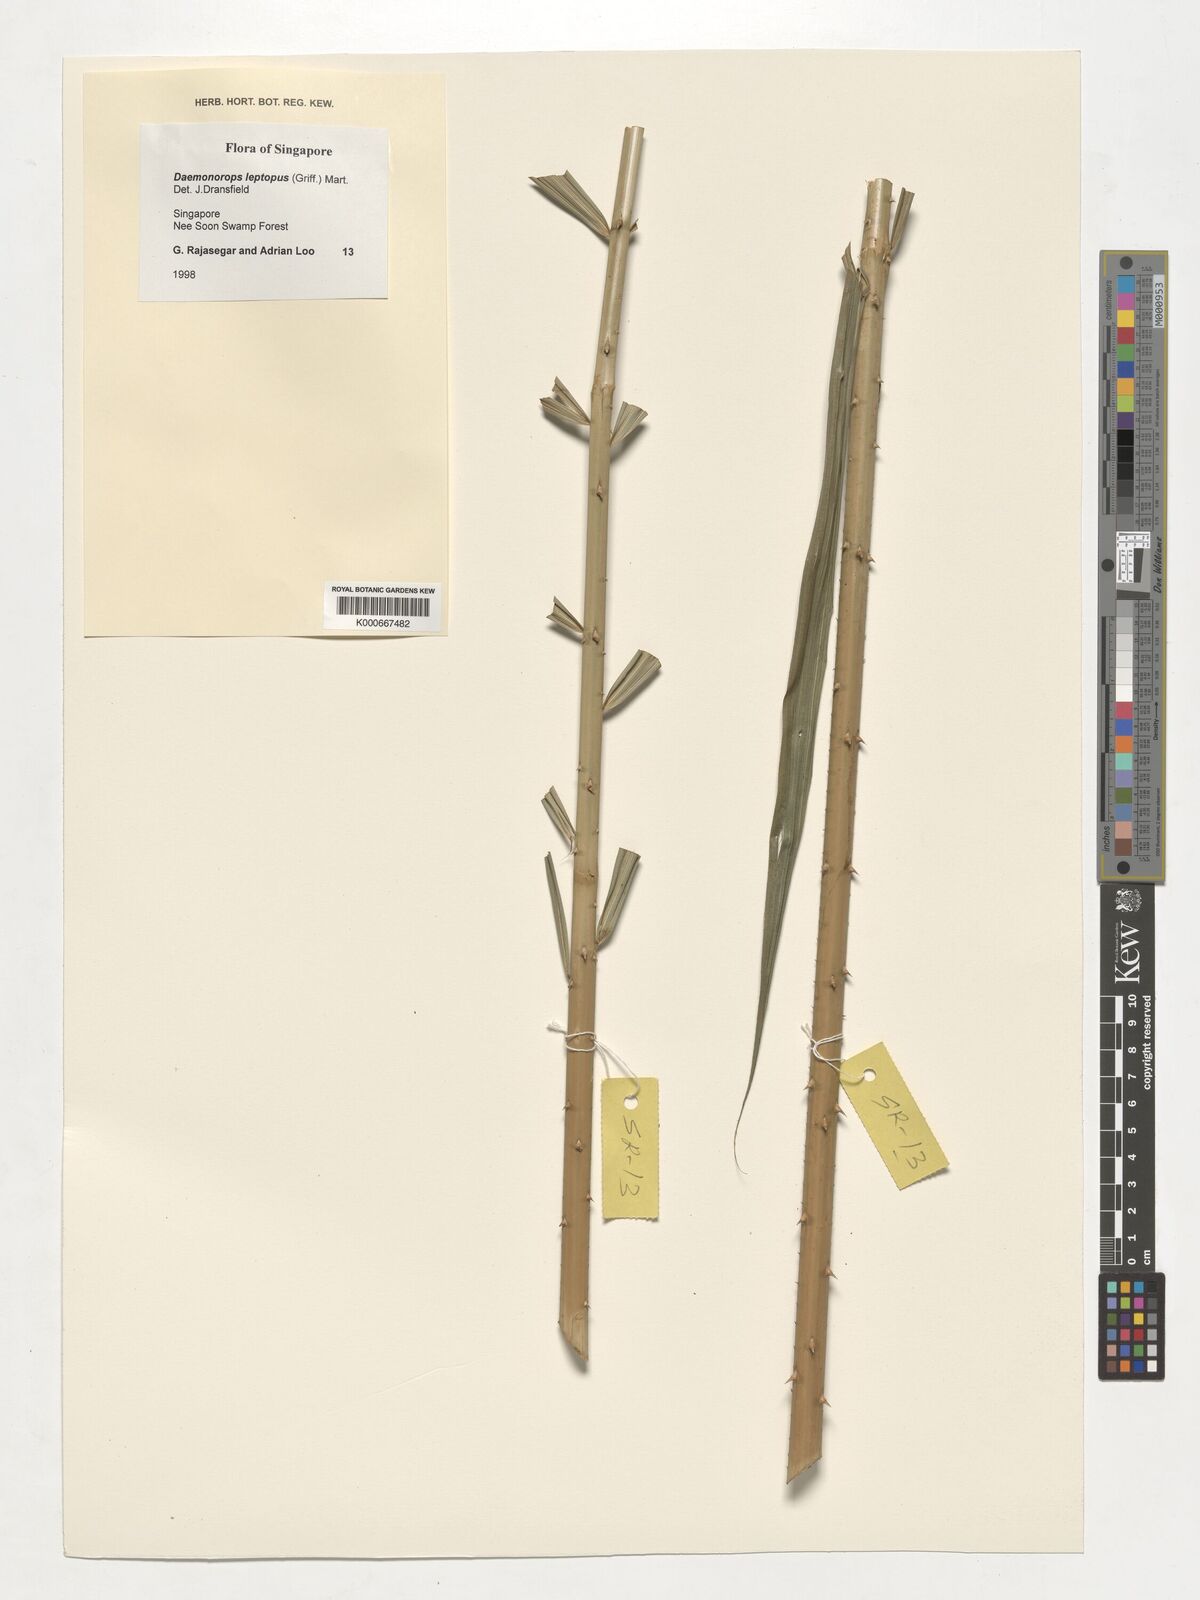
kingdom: Plantae
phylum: Tracheophyta
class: Liliopsida
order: Arecales
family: Arecaceae
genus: Calamus
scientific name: Calamus leptopus
